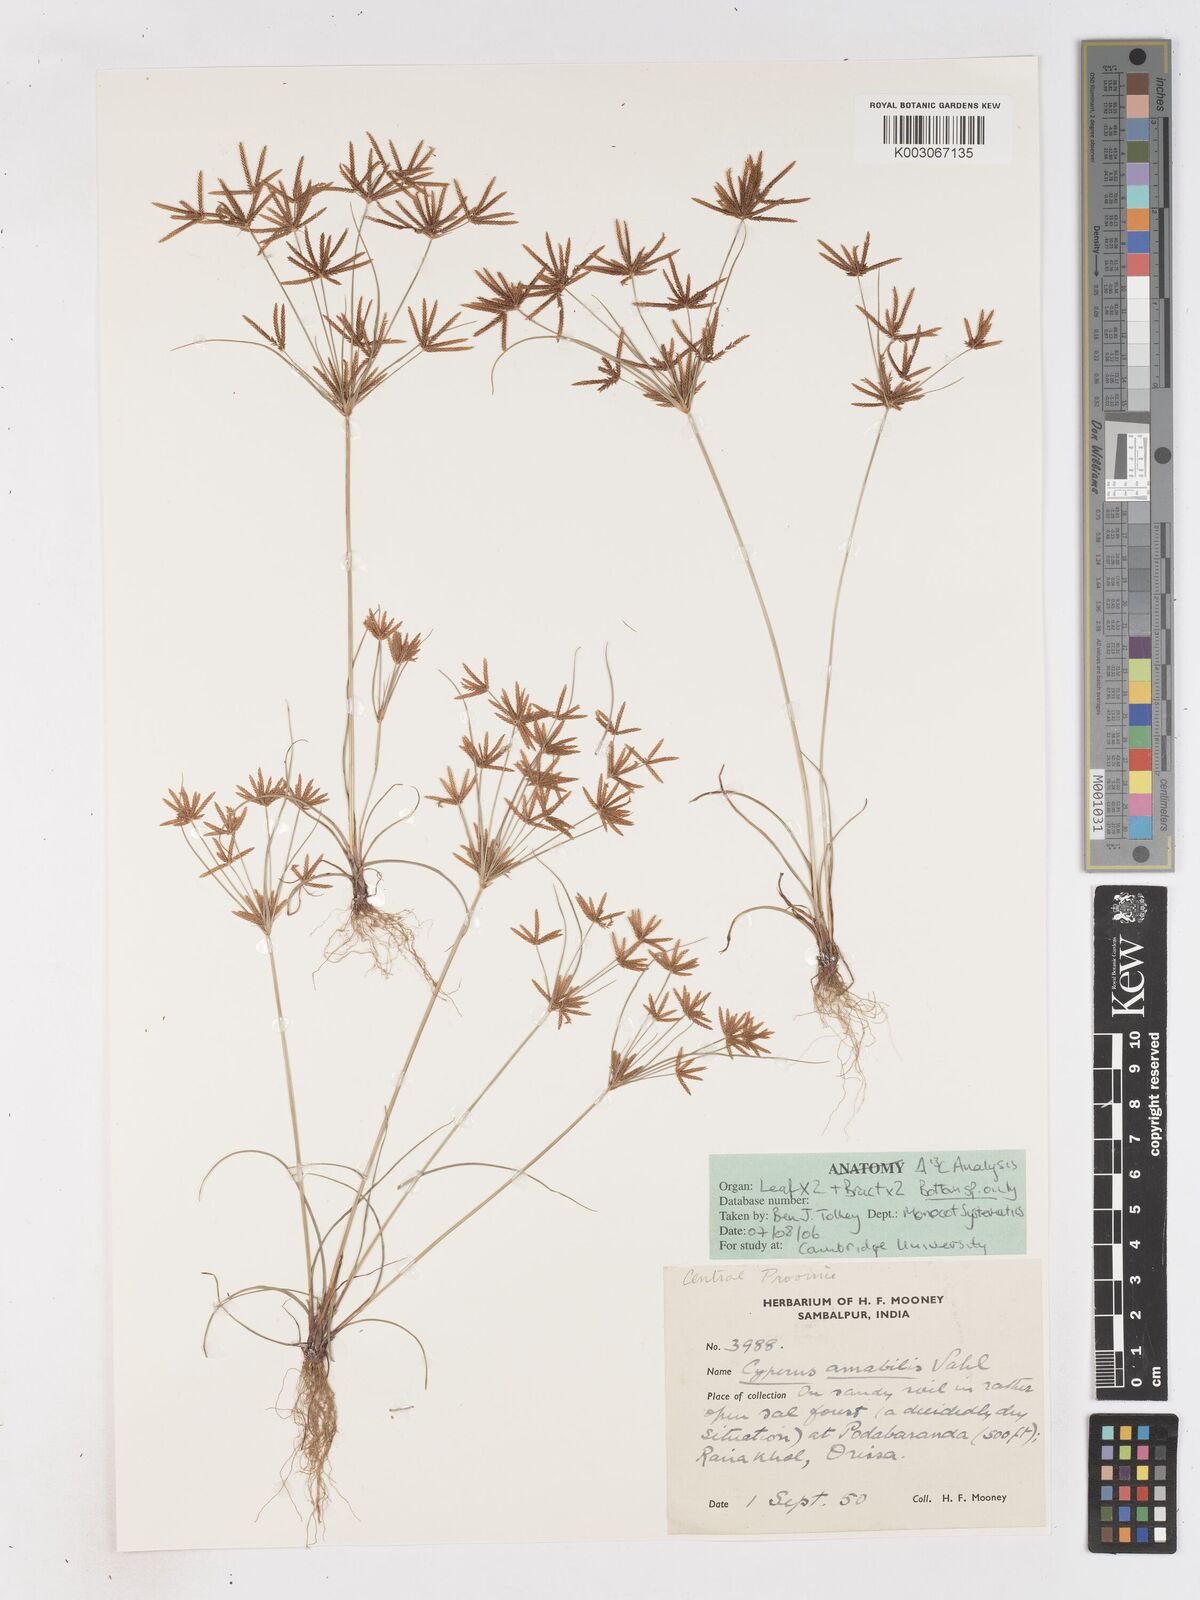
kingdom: Plantae
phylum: Tracheophyta
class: Liliopsida
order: Poales
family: Cyperaceae
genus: Cyperus
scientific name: Cyperus amabilis
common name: Foothill flat sedge
